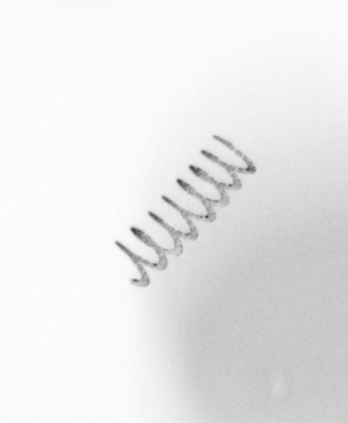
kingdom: Chromista
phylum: Ochrophyta
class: Bacillariophyceae
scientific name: Bacillariophyceae
